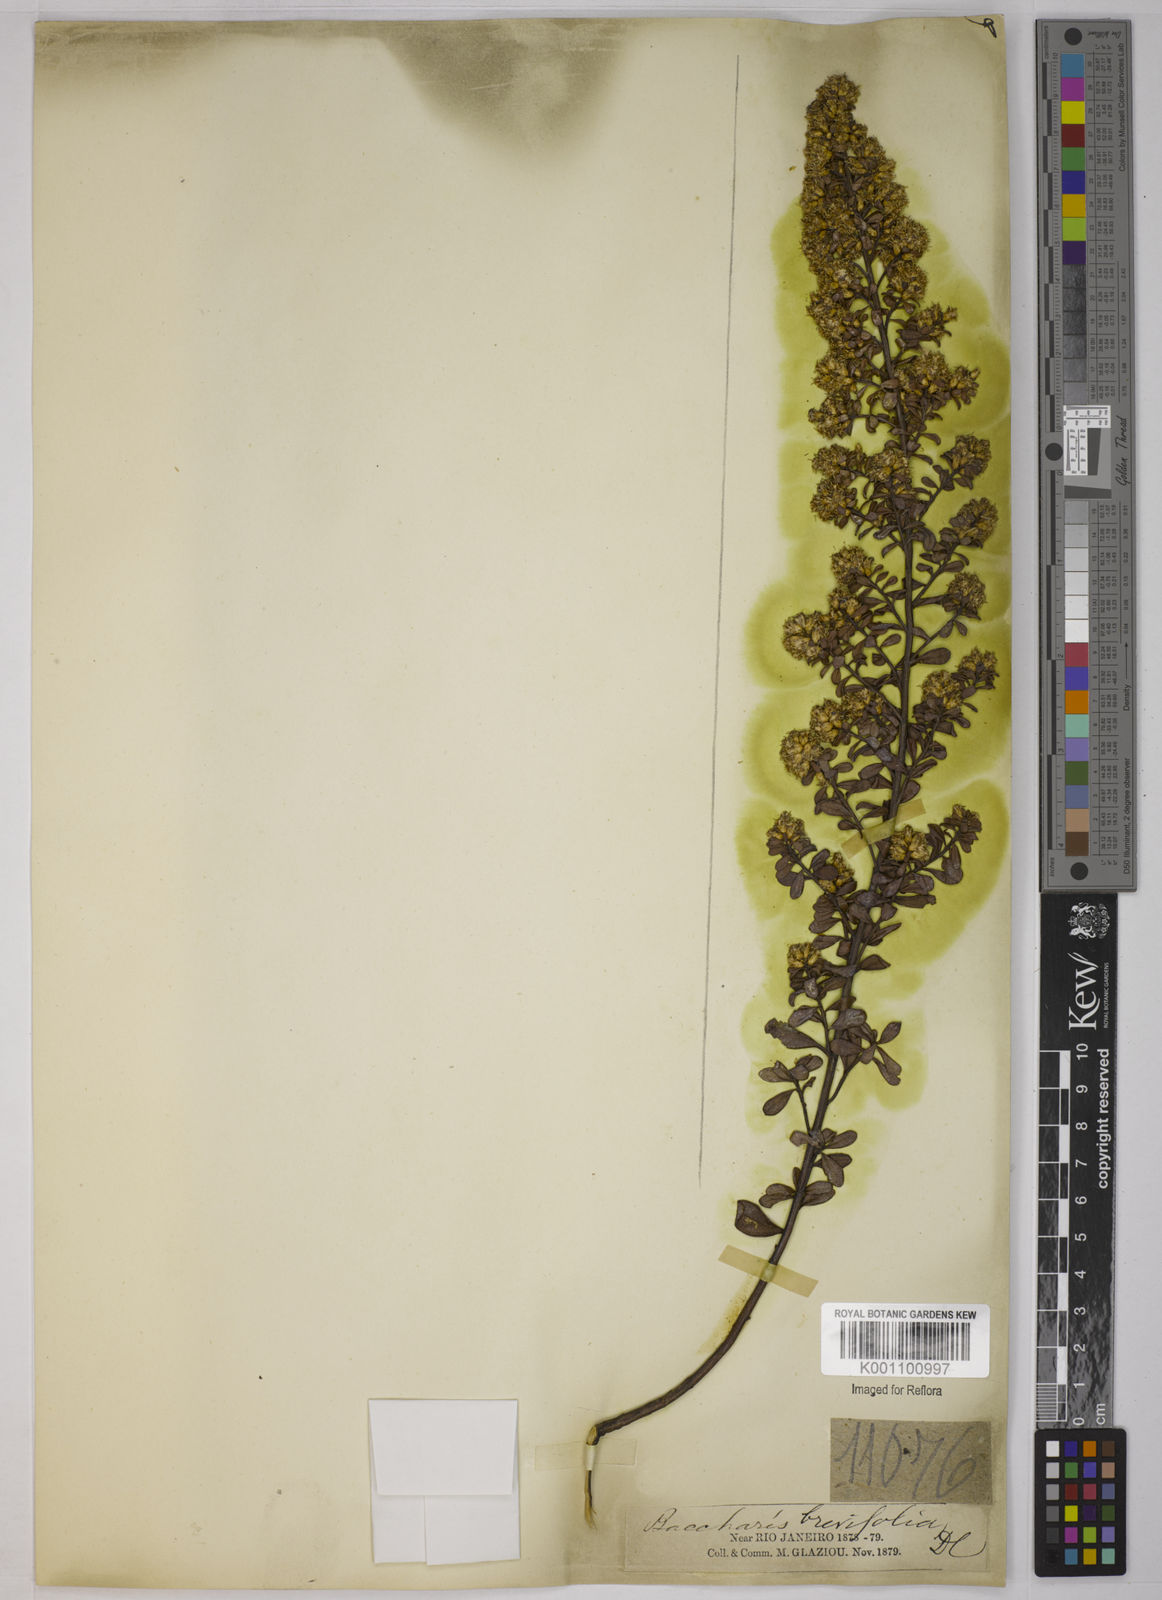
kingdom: Plantae
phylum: Tracheophyta
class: Magnoliopsida
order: Asterales
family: Asteraceae
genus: Baccharis
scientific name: Baccharis brevifolia
